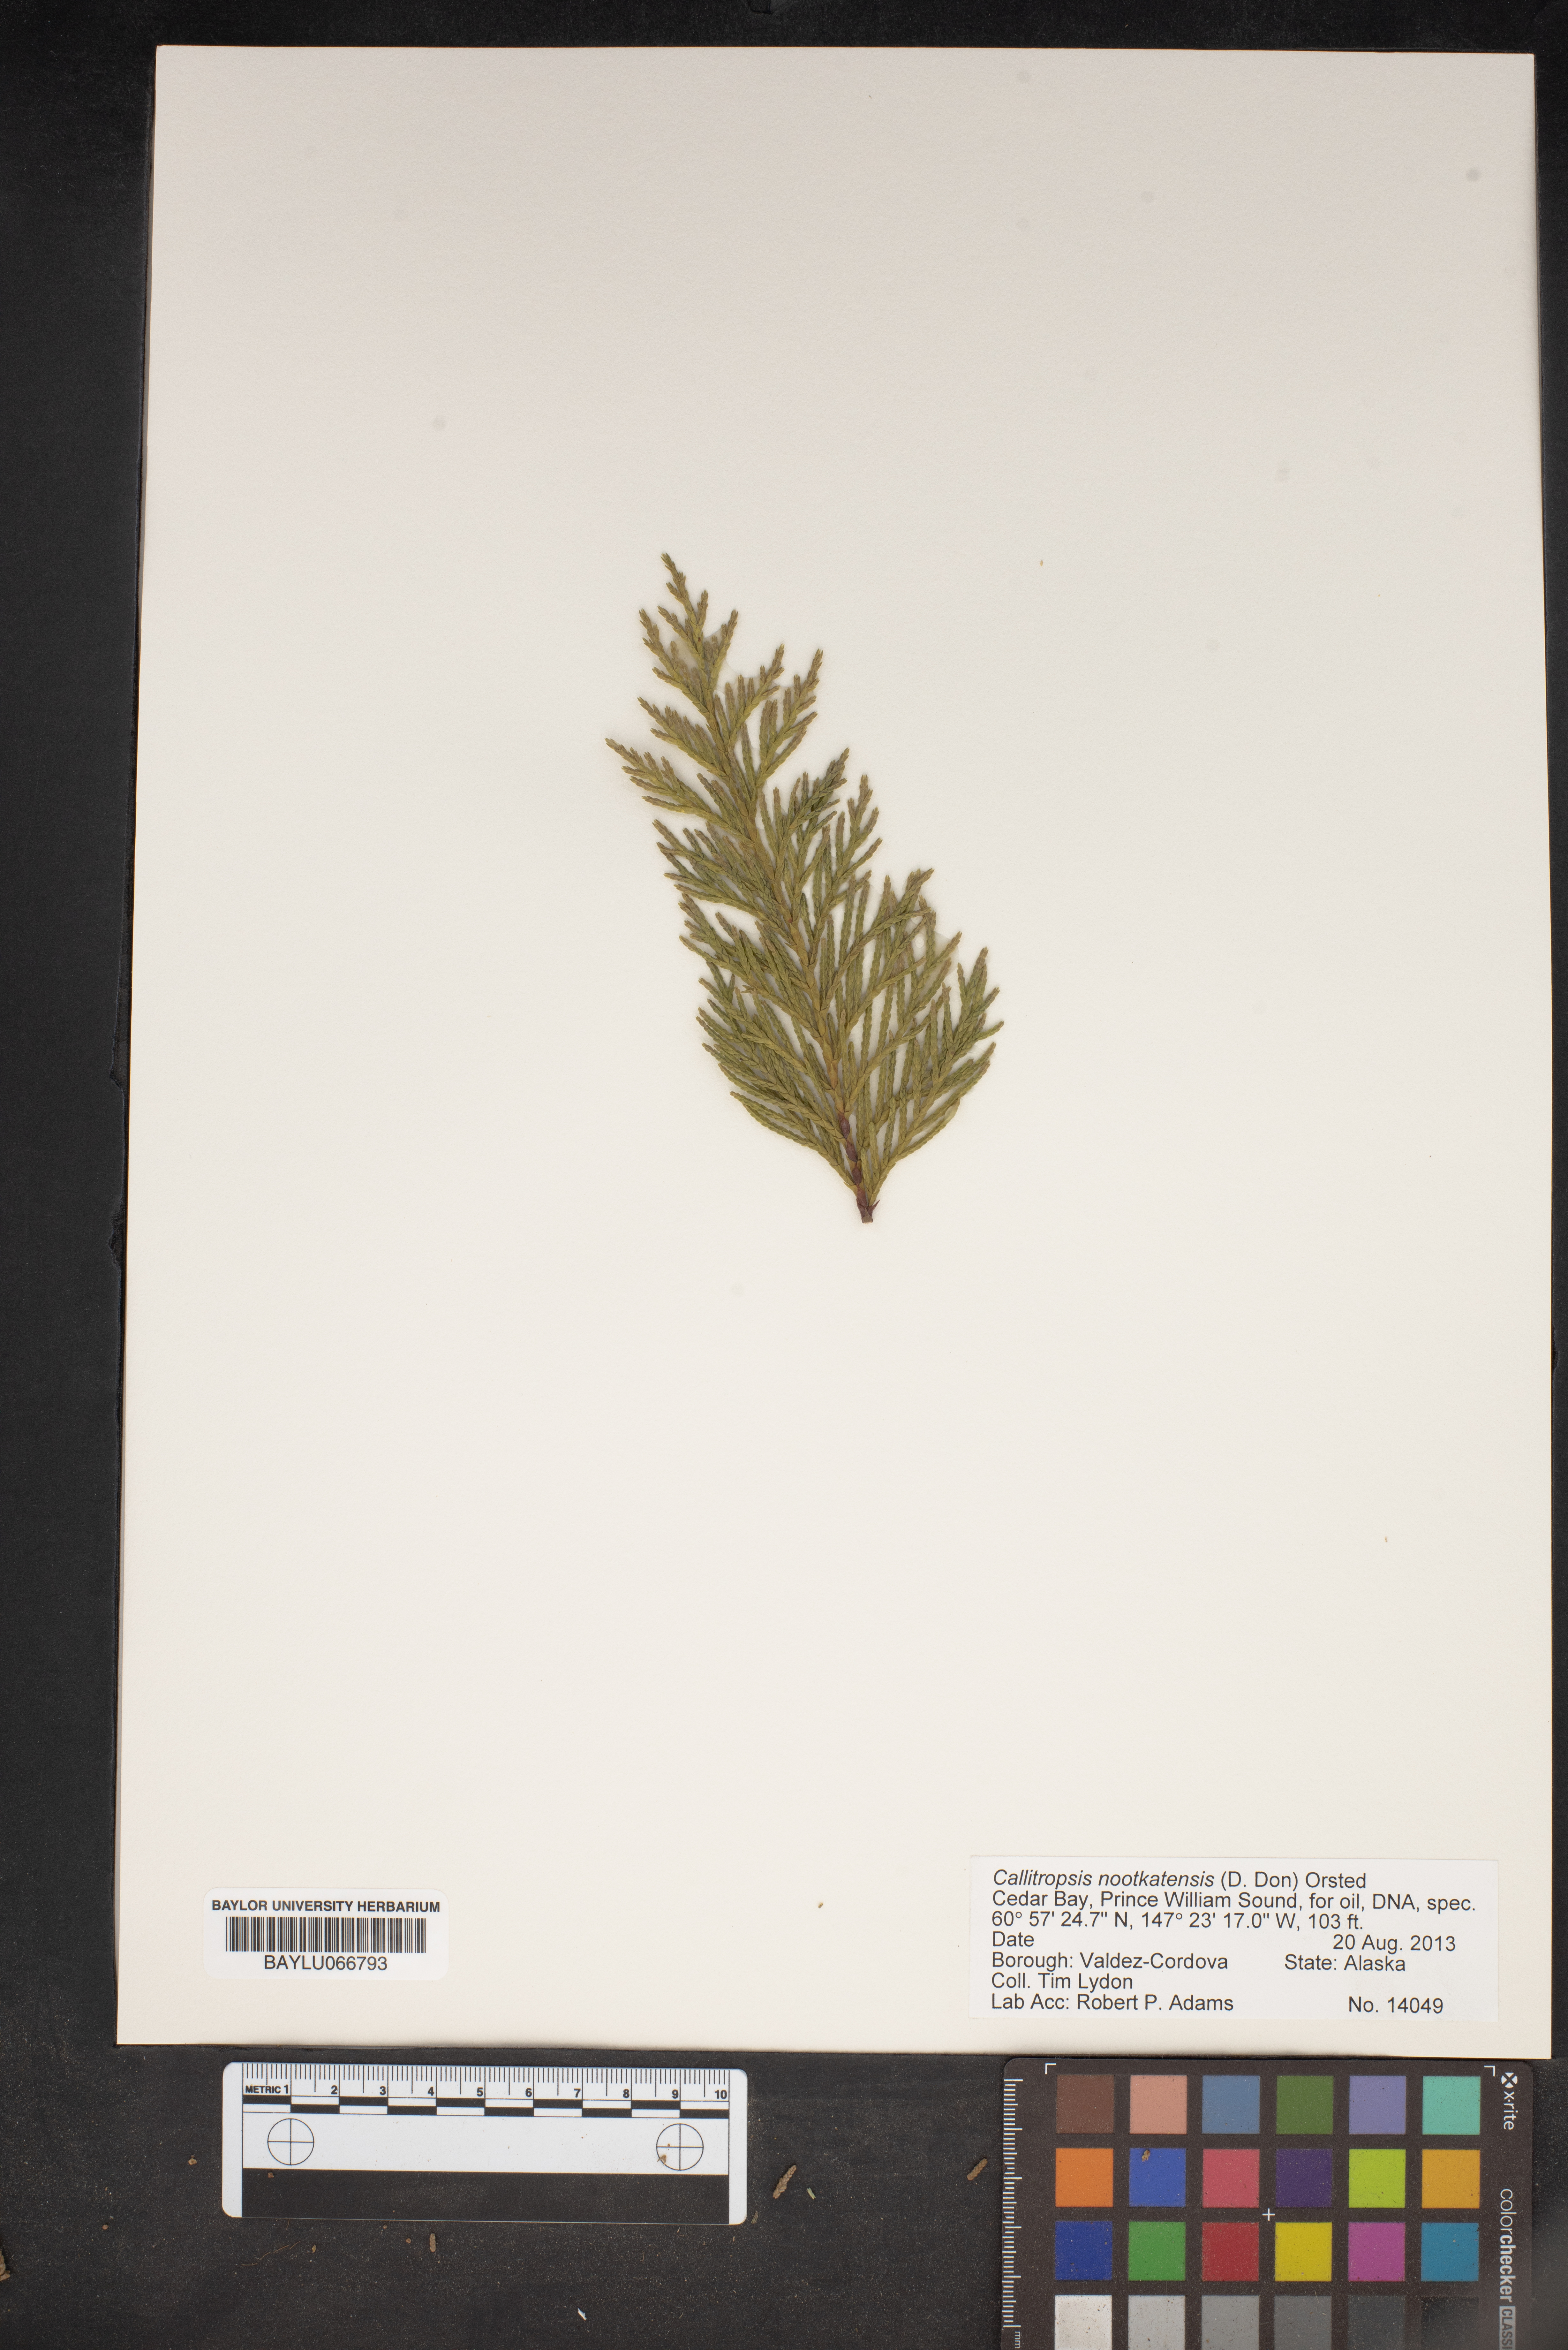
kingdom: Plantae
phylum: Tracheophyta
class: Pinopsida
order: Pinales
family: Cupressaceae
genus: Xanthocyparis
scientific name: Xanthocyparis nootkatensis
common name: Nootka cypress
